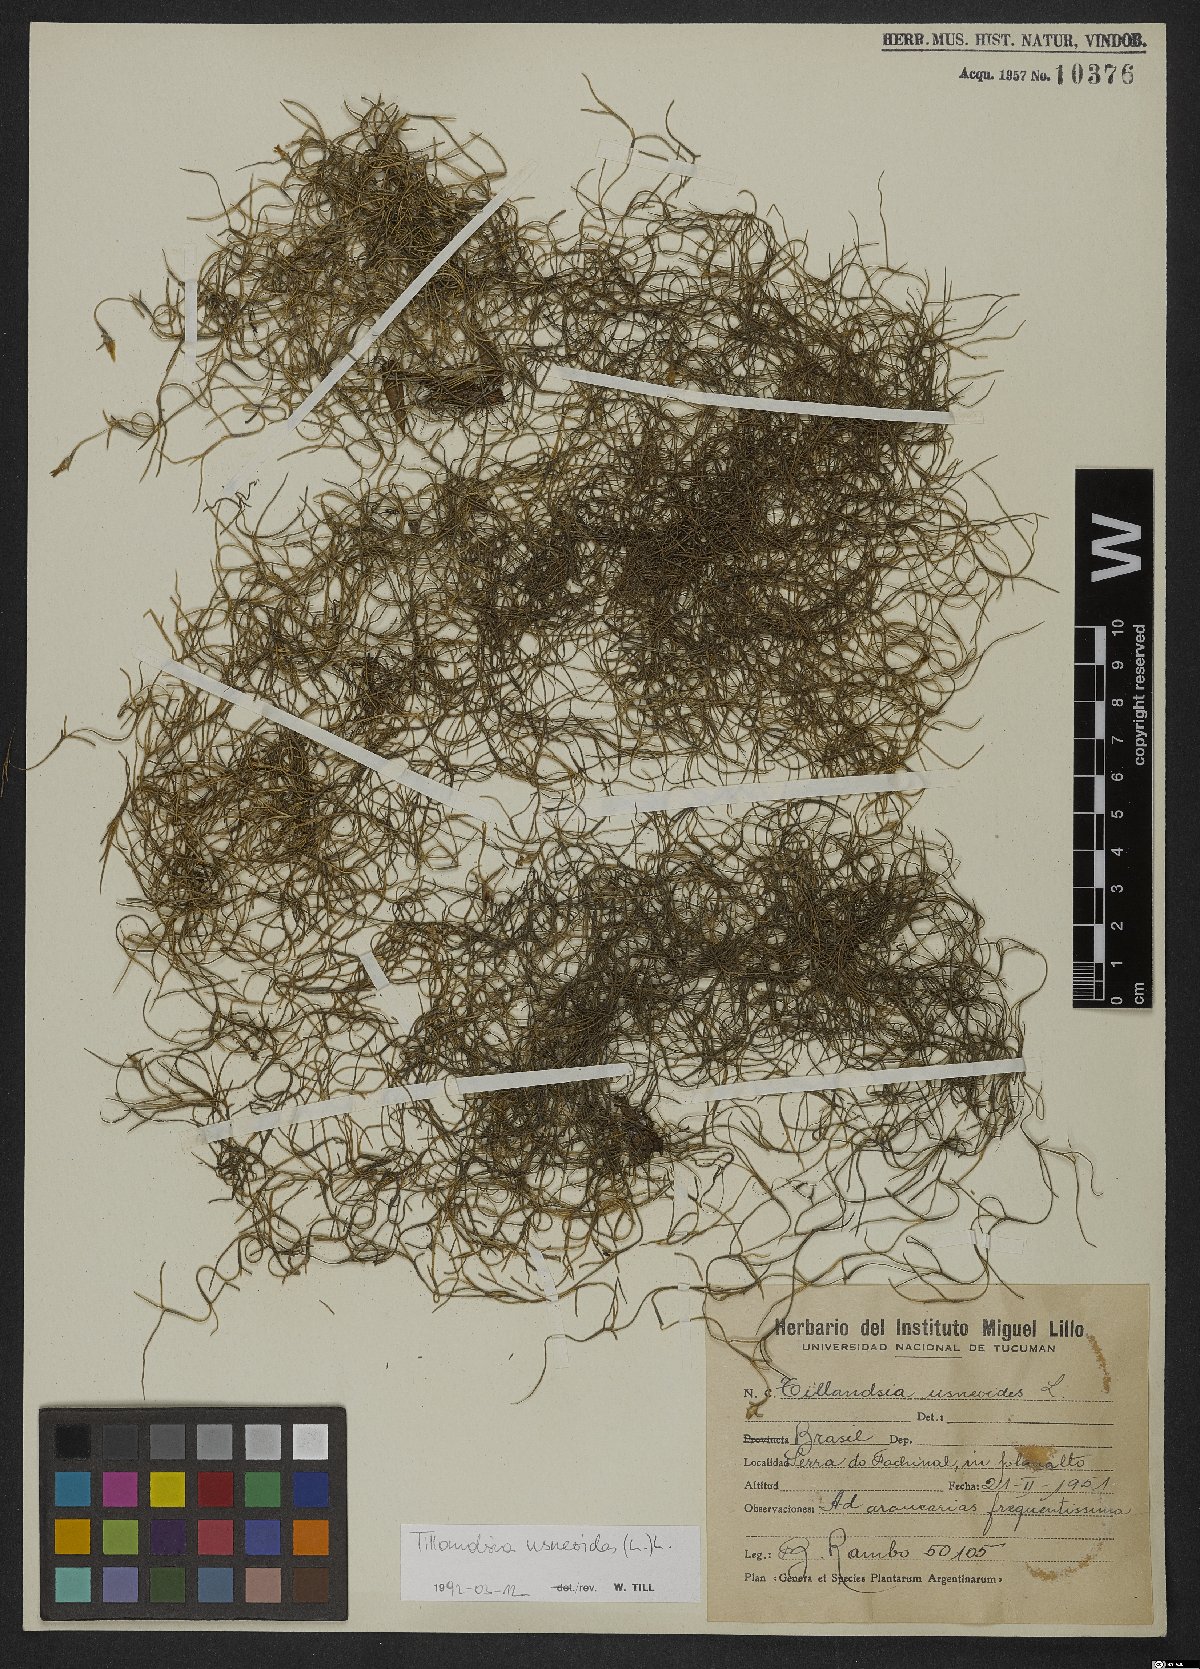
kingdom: Plantae
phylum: Tracheophyta
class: Liliopsida
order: Poales
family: Bromeliaceae
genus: Tillandsia
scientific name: Tillandsia usneoides
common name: Spanish moss
